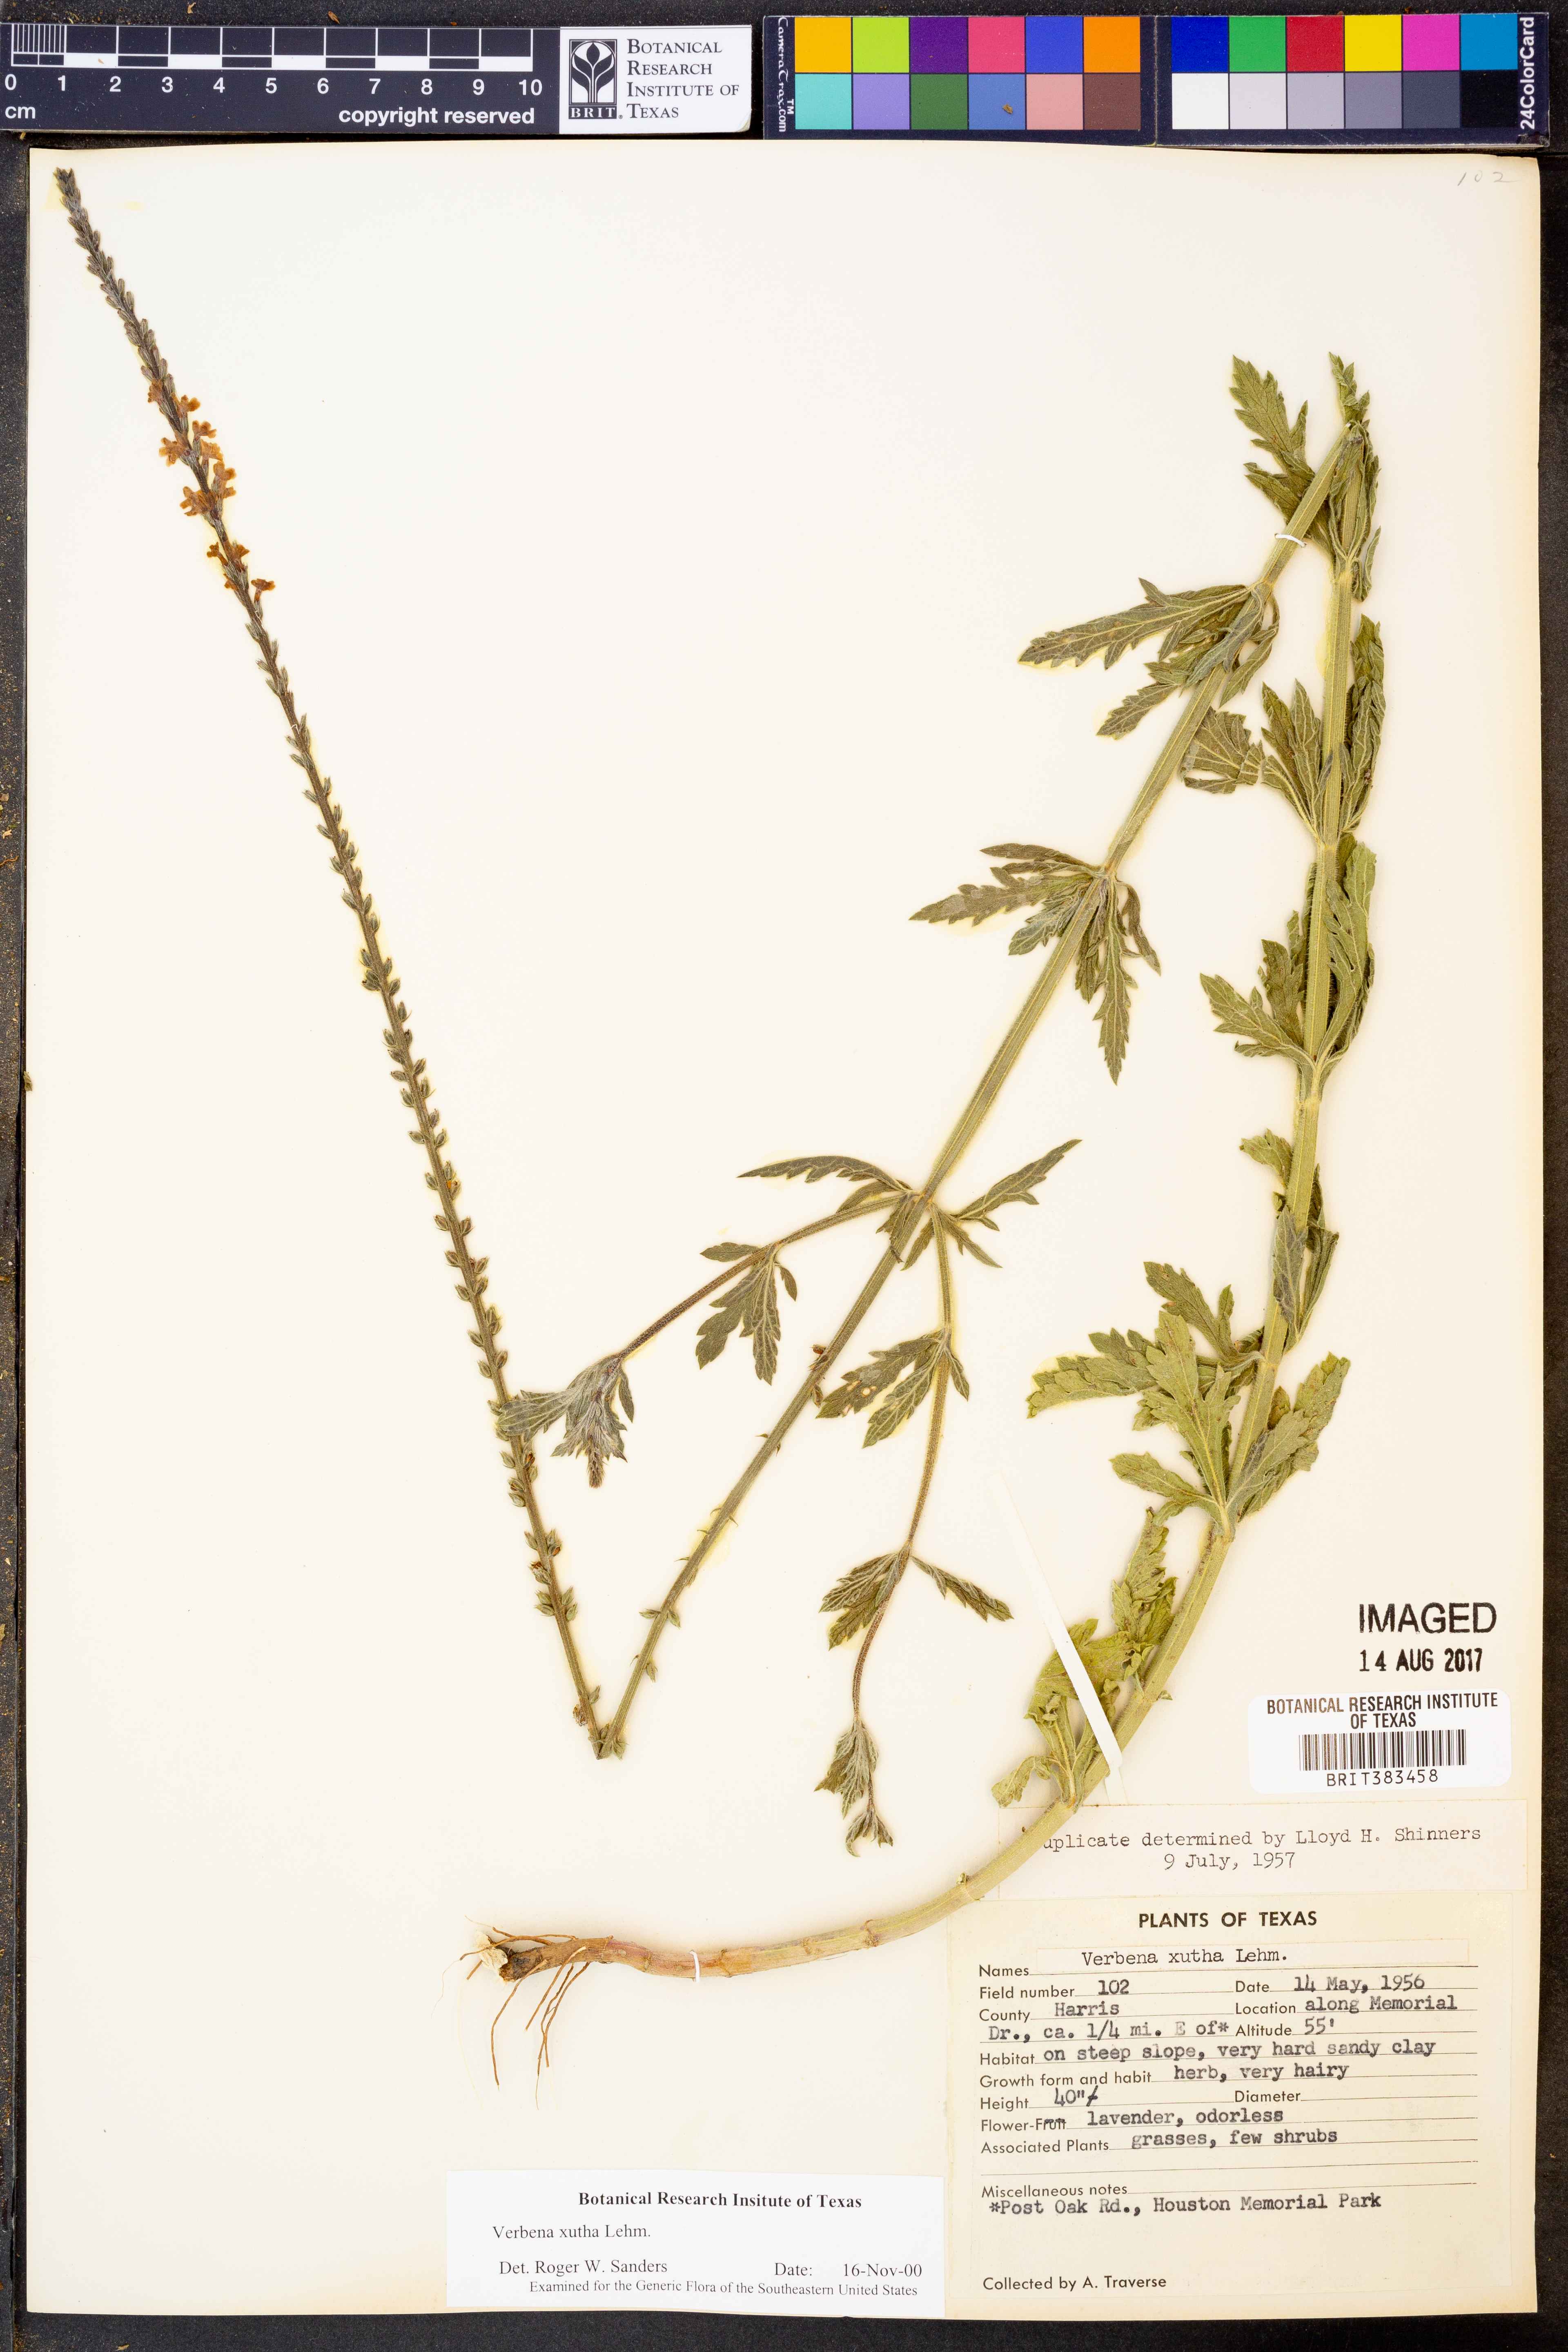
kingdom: Plantae
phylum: Tracheophyta
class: Magnoliopsida
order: Lamiales
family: Verbenaceae
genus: Verbena
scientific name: Verbena xutha
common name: Gulf vervain
